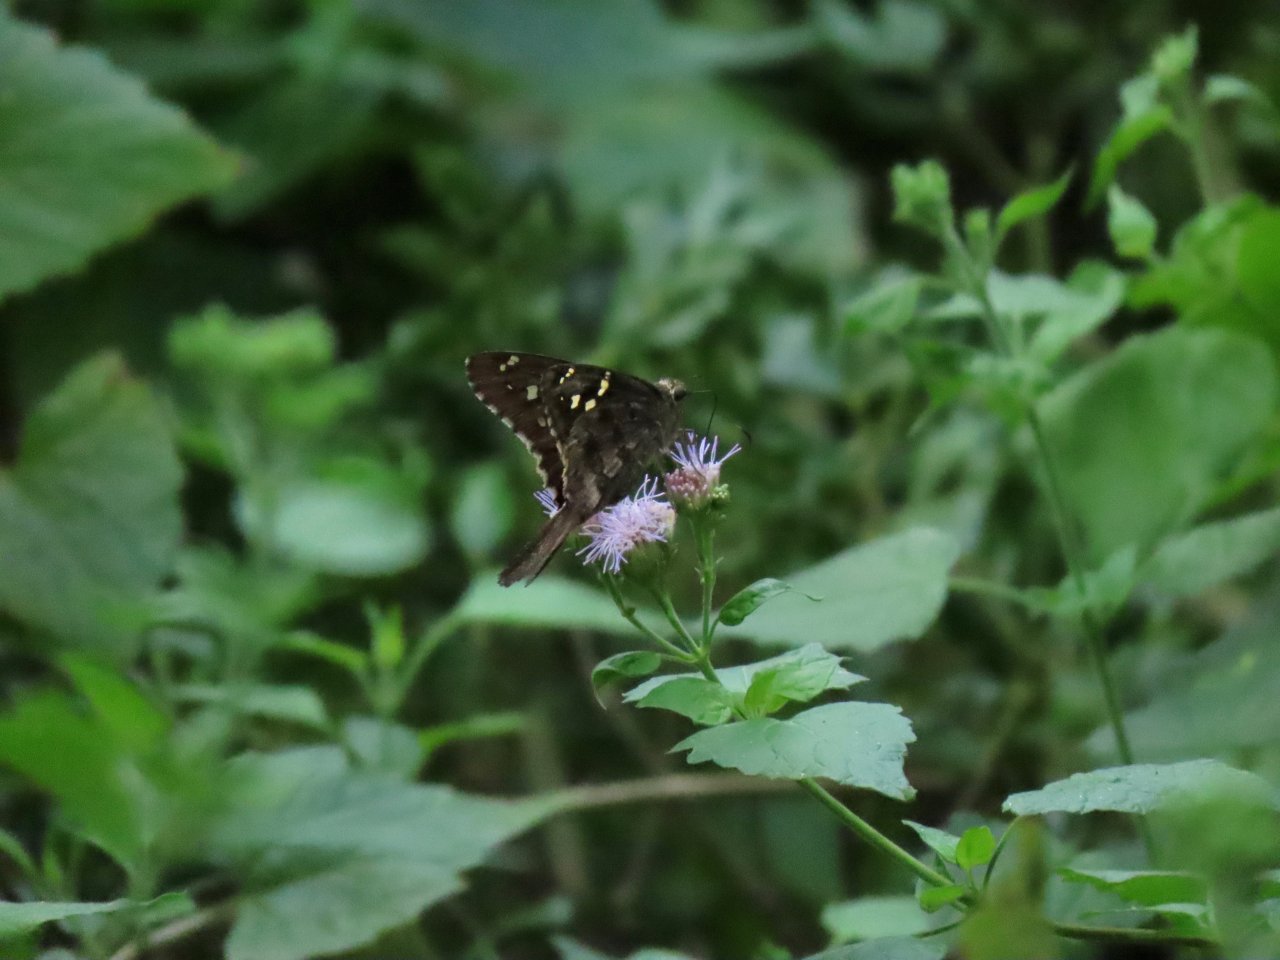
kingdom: Animalia
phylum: Arthropoda
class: Insecta
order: Lepidoptera
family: Hesperiidae
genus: Urbanus
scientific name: Urbanus dorantes
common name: Dorantes Longtail
